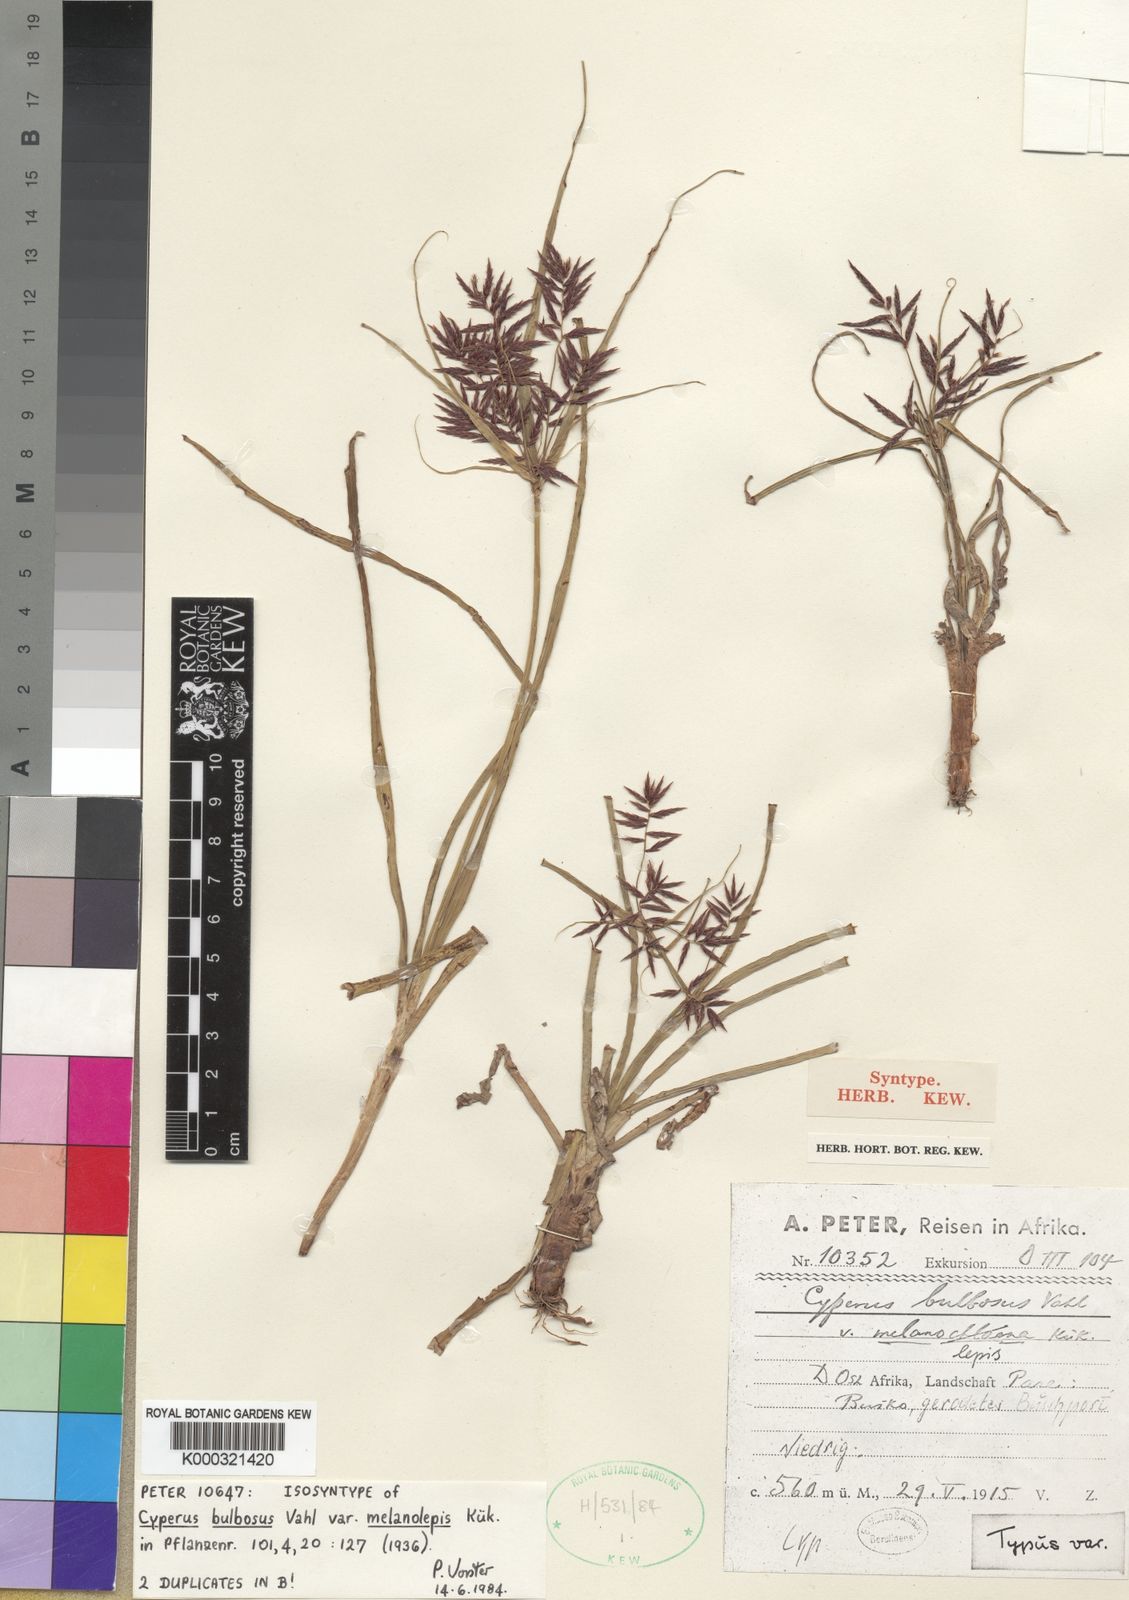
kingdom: Plantae
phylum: Tracheophyta
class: Liliopsida
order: Poales
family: Cyperaceae
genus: Cyperus
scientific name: Cyperus bulbosus
